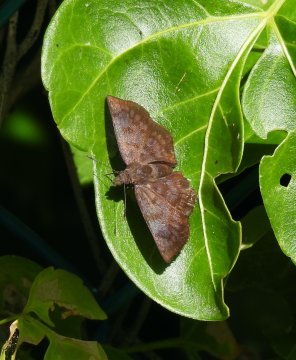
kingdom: Animalia
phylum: Arthropoda
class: Insecta
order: Lepidoptera
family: Hesperiidae
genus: Pellicia
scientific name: Pellicia costimacula
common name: Glazed Pellicia
